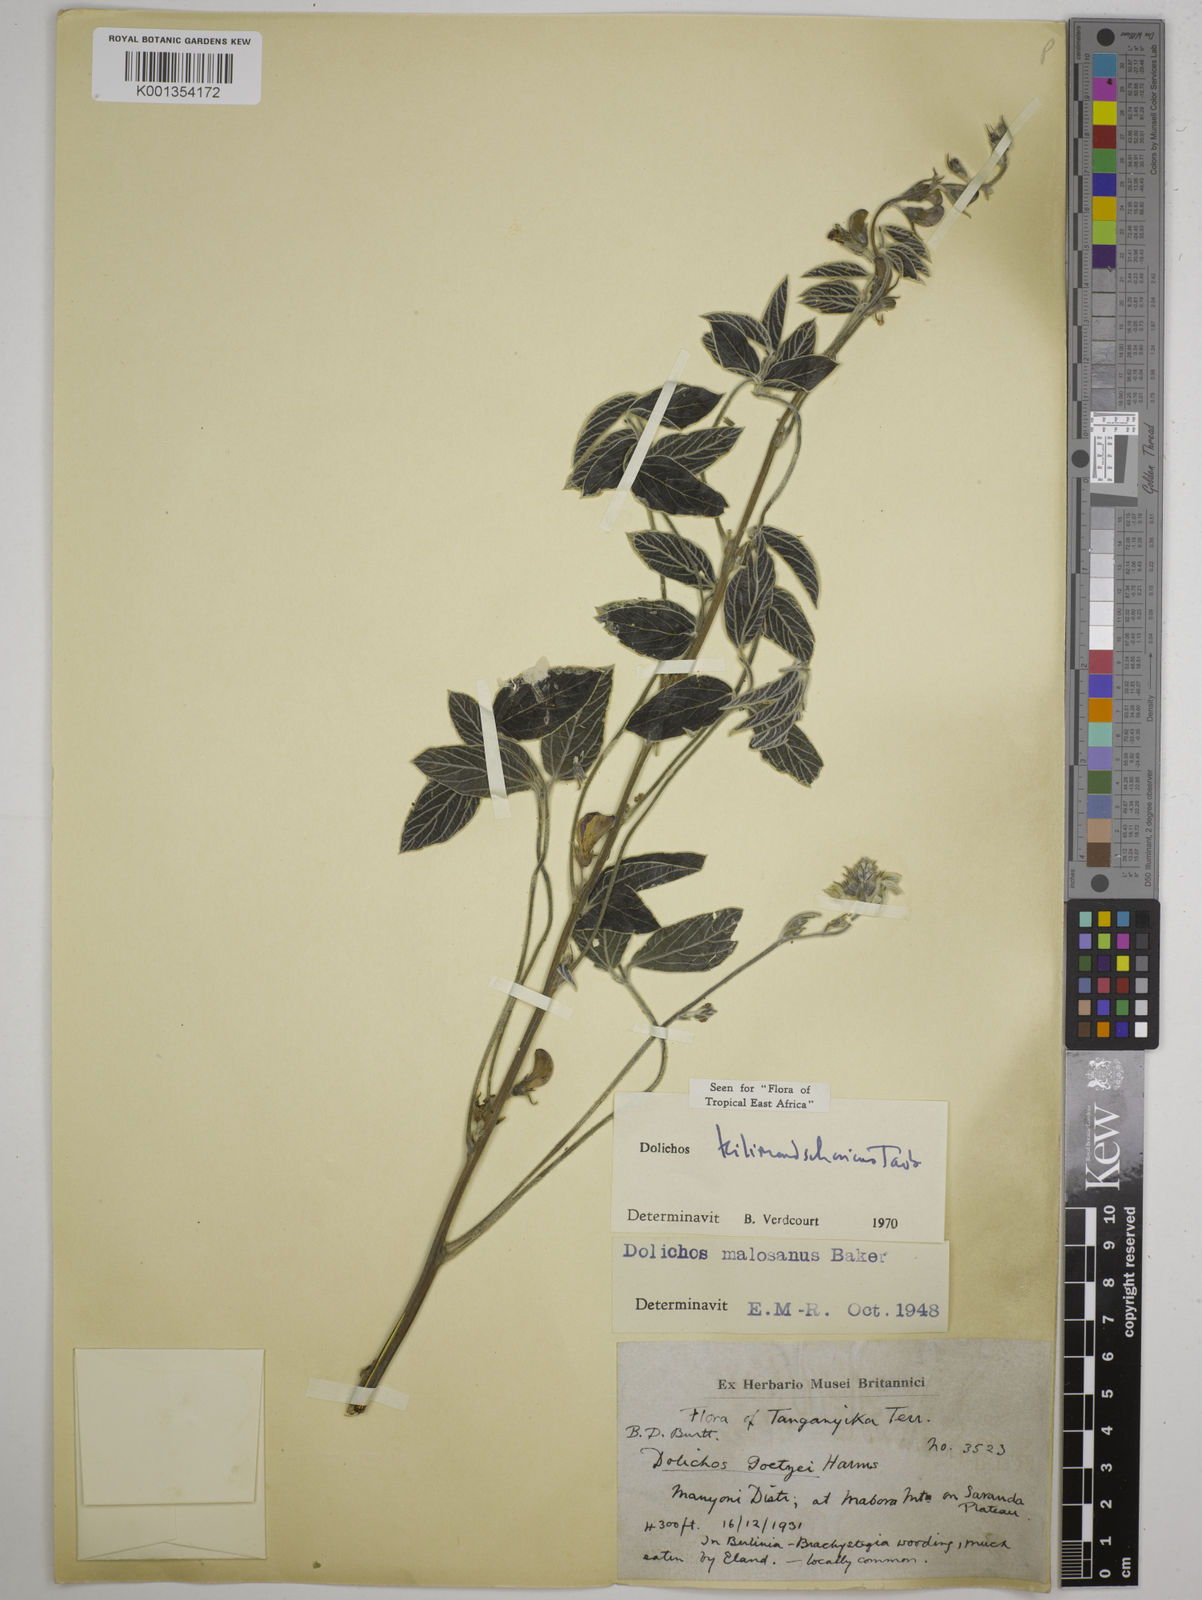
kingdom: Plantae
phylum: Tracheophyta
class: Magnoliopsida
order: Fabales
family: Fabaceae
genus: Dolichos
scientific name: Dolichos kilimandscharicus
